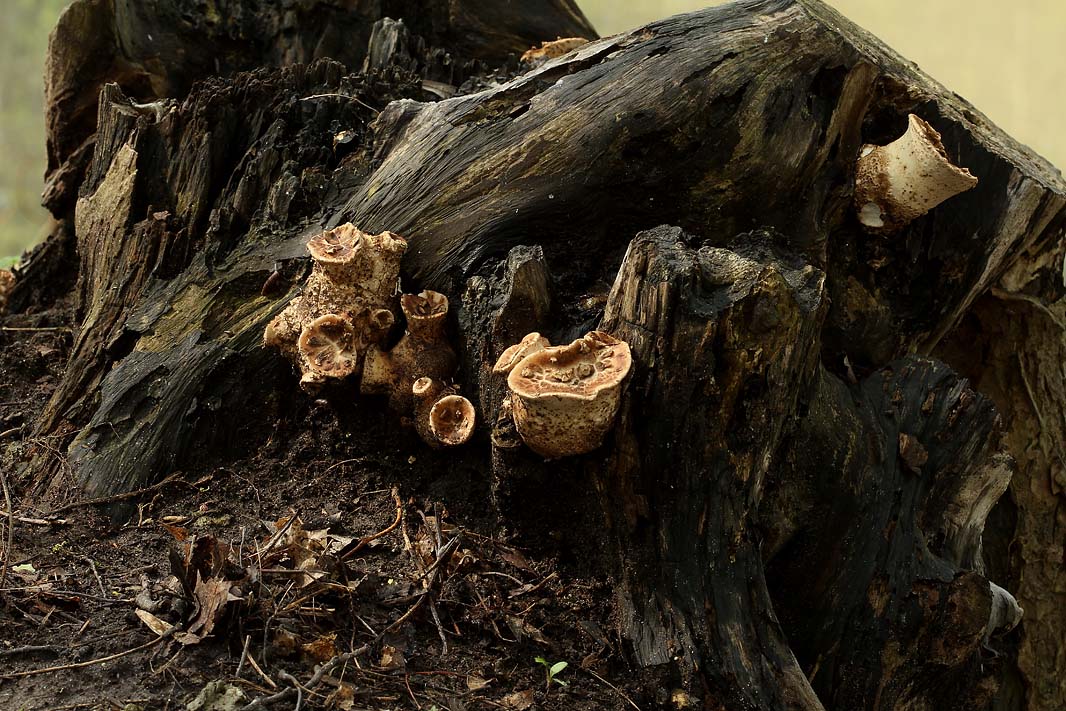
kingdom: Fungi
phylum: Basidiomycota
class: Agaricomycetes
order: Polyporales
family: Polyporaceae
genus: Cerioporus
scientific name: Cerioporus squamosus
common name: skællet stilkporesvamp
